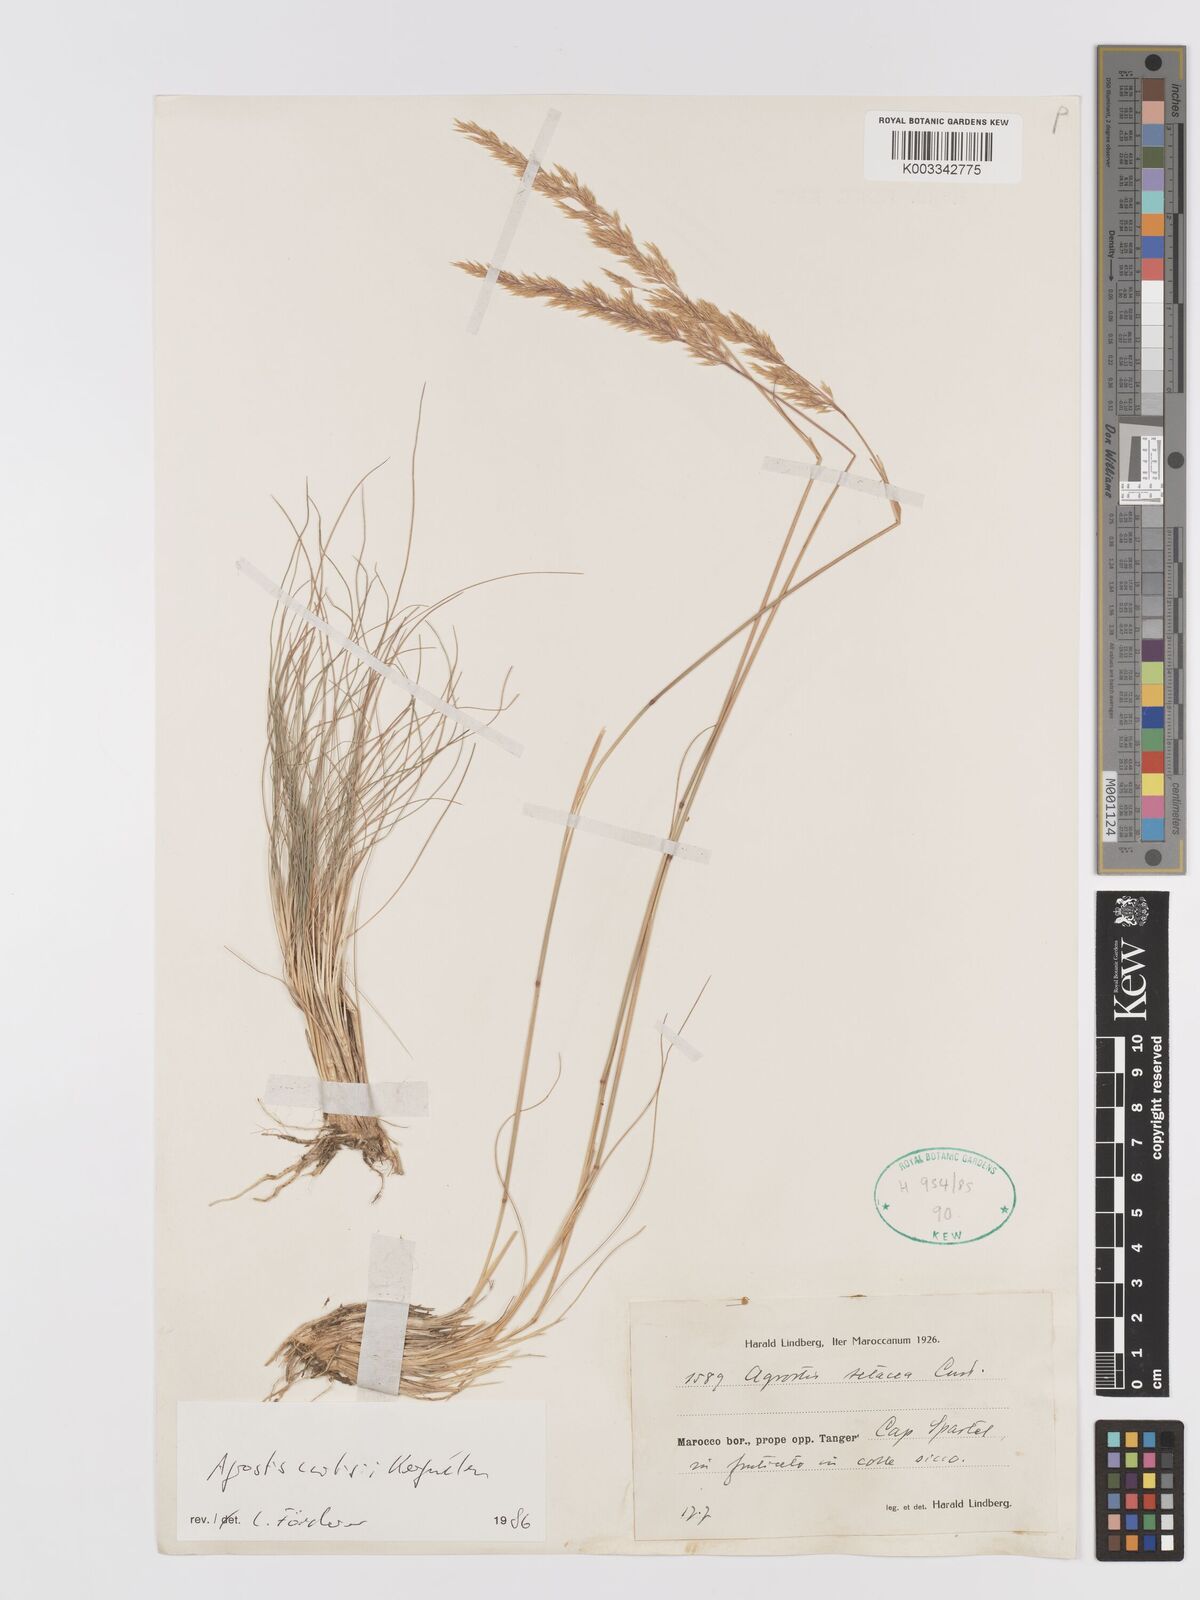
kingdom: Plantae
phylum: Tracheophyta
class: Liliopsida
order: Poales
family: Poaceae
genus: Alpagrostis
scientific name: Alpagrostis setacea
